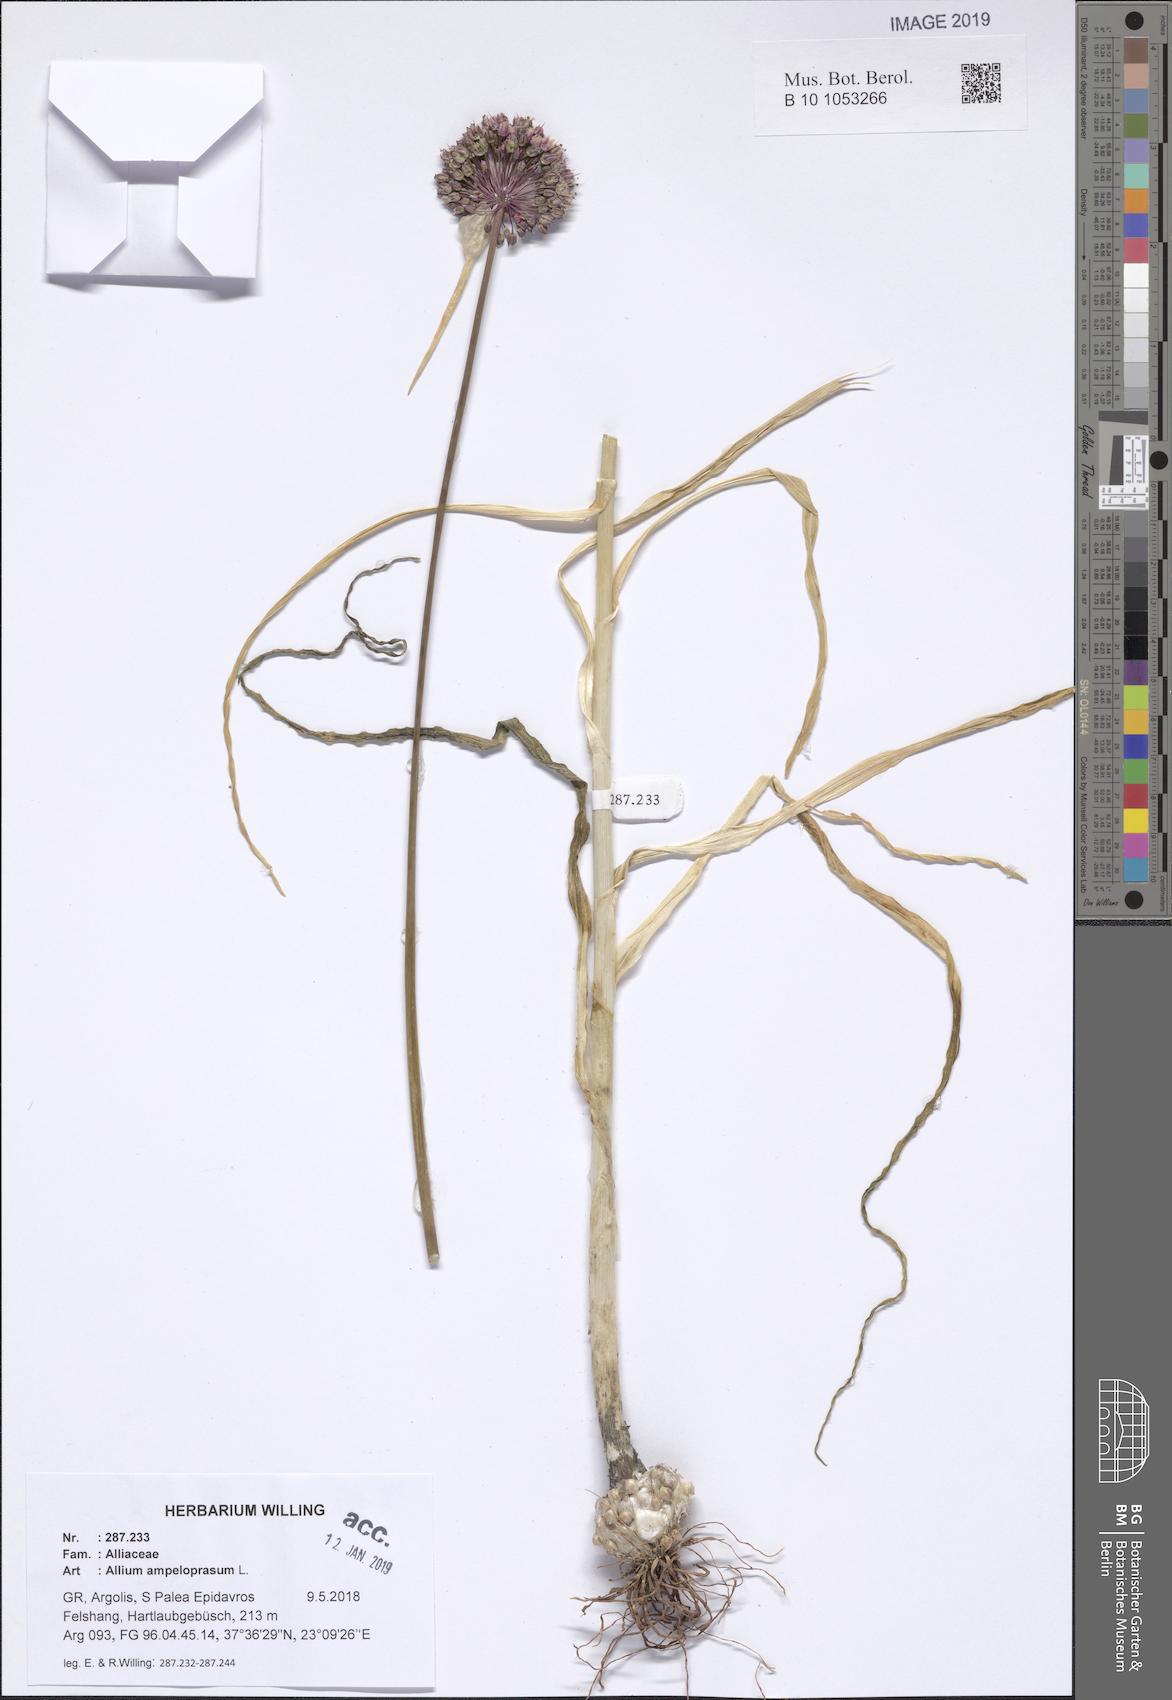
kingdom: Plantae
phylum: Tracheophyta
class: Liliopsida
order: Asparagales
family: Amaryllidaceae
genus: Allium
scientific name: Allium ampeloprasum
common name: Wild leek
